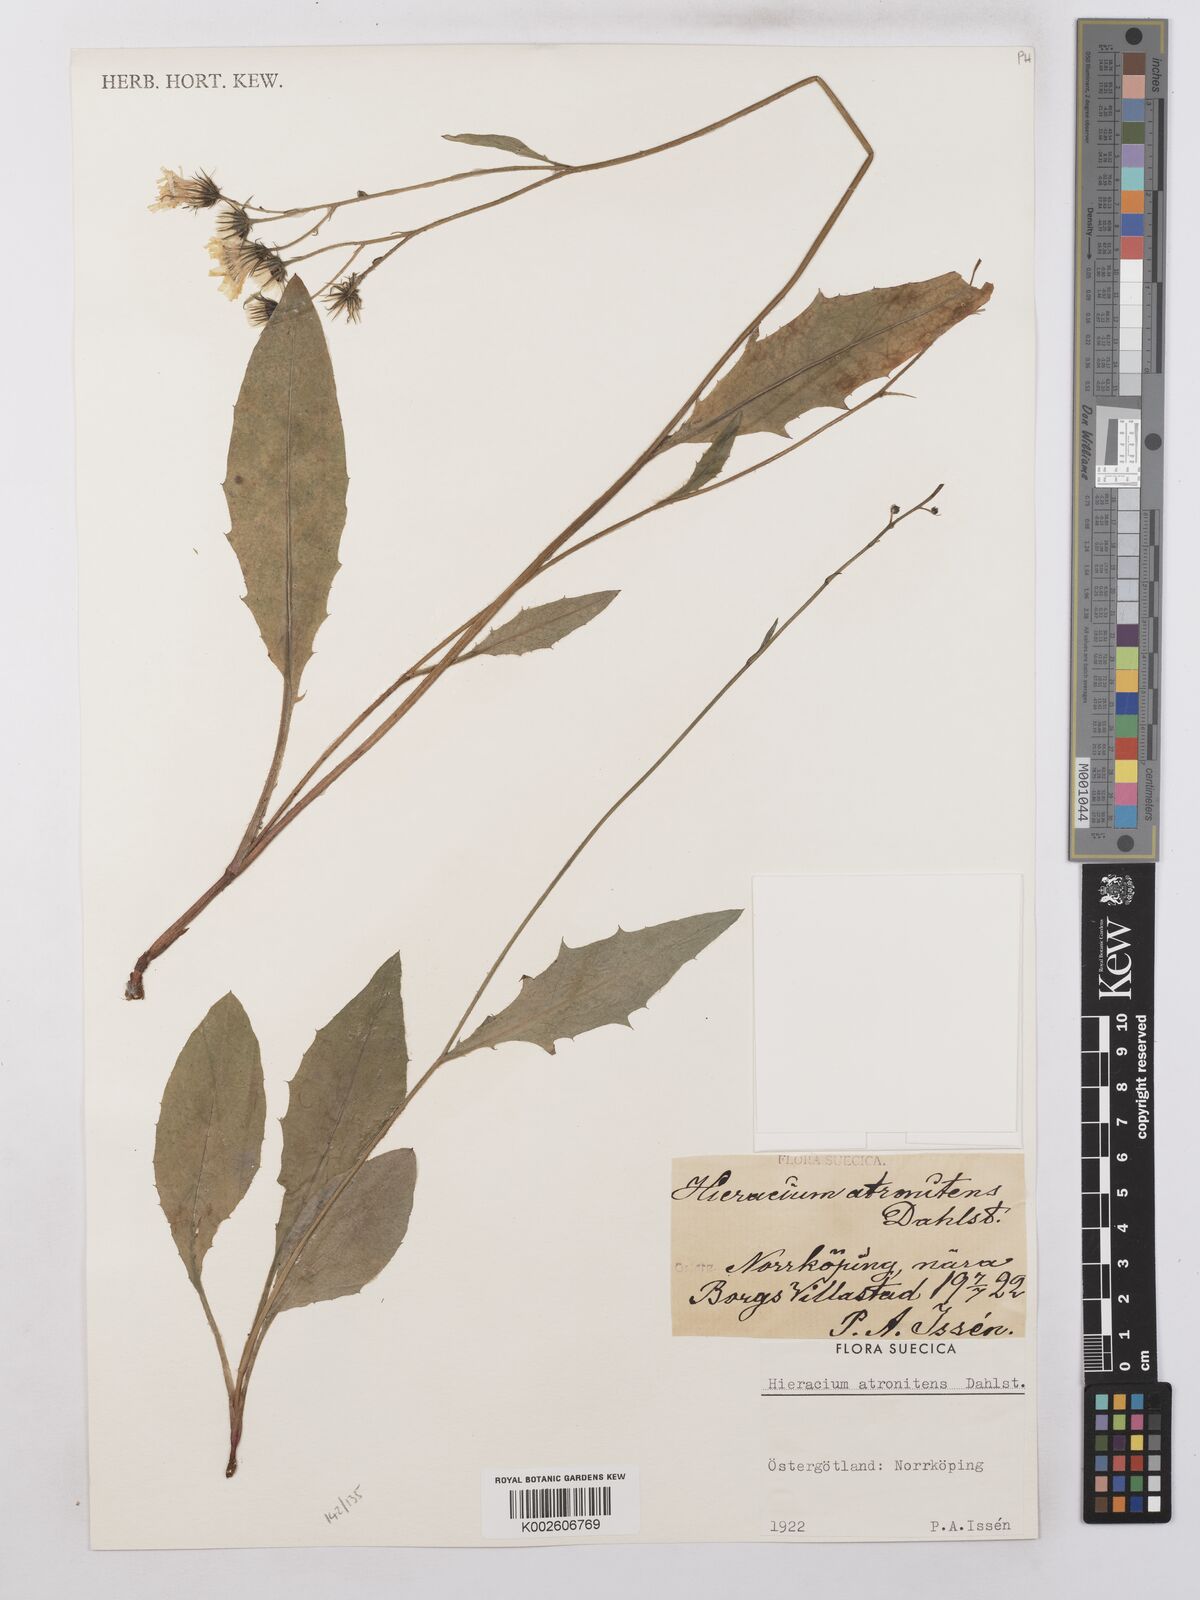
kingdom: Plantae
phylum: Tracheophyta
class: Magnoliopsida
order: Asterales
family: Asteraceae
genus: Hieracium
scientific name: Hieracium lachenalii
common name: Common hawkweed
